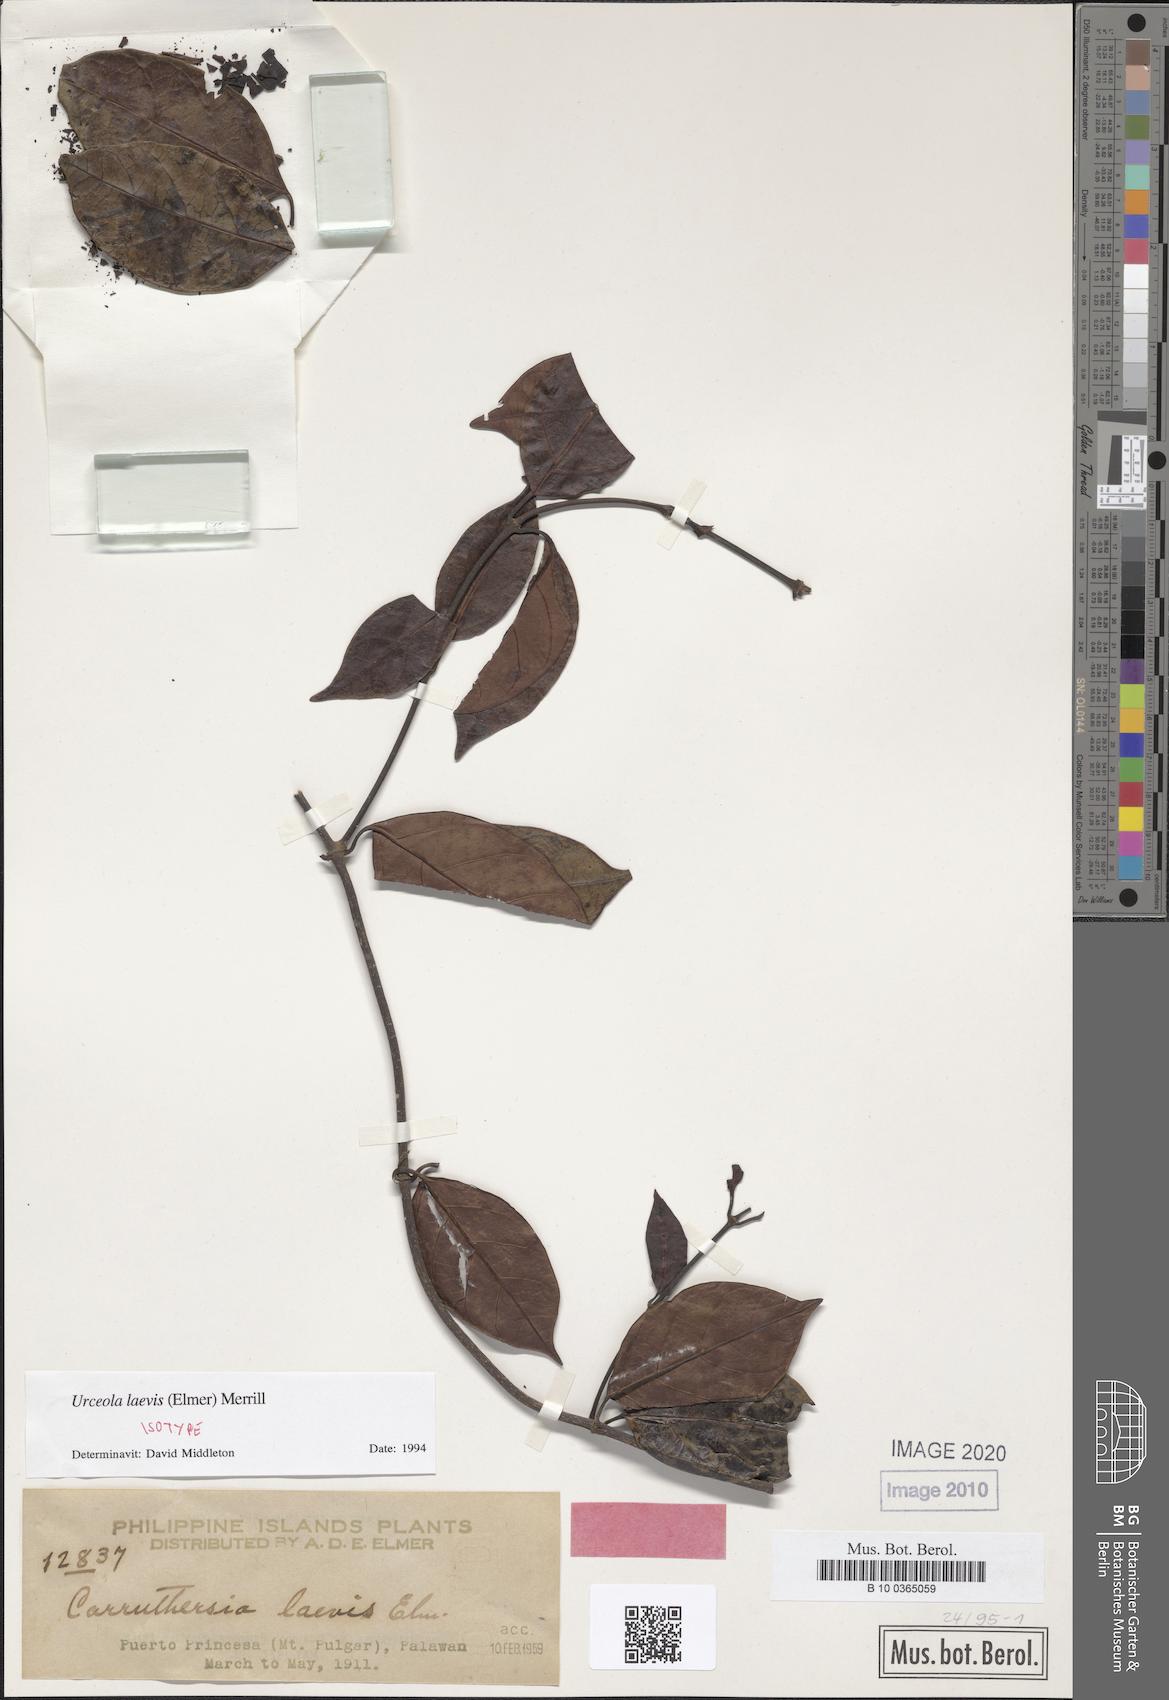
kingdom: Plantae
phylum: Tracheophyta
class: Magnoliopsida
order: Gentianales
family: Apocynaceae
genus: Urceola
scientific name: Urceola laevis
